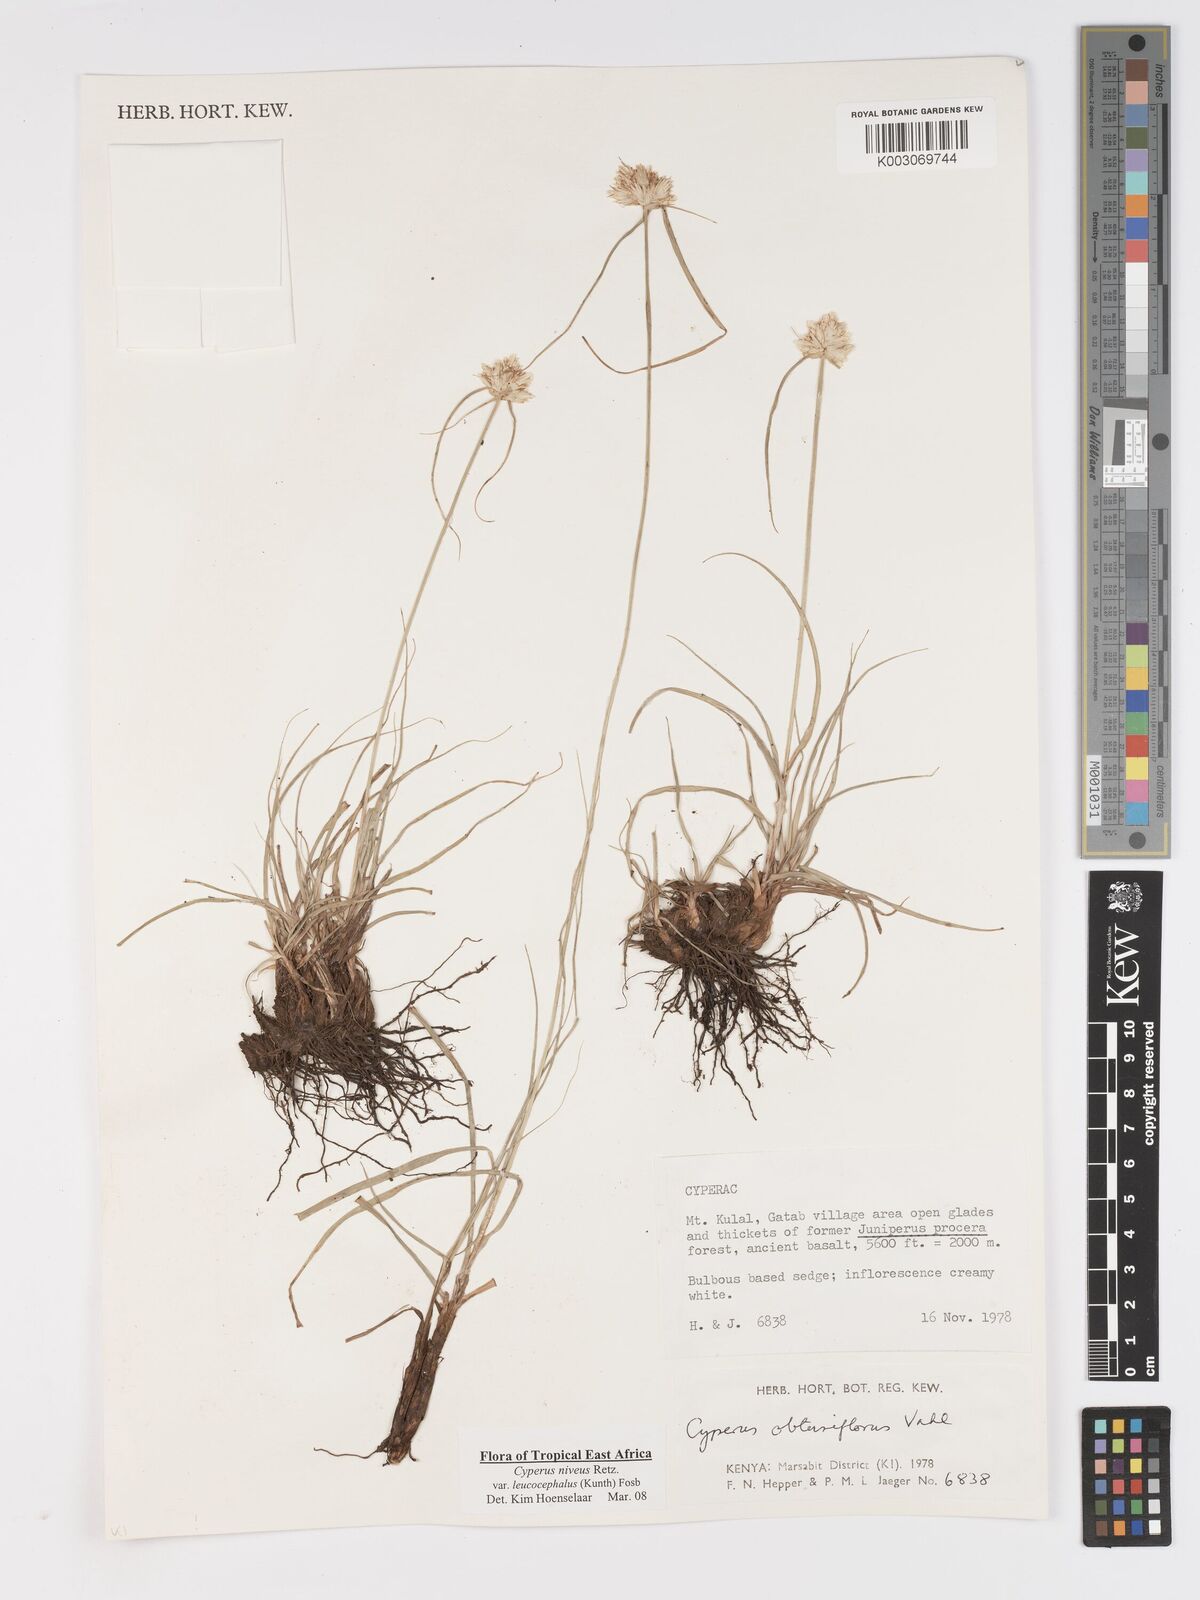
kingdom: Plantae
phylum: Tracheophyta
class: Liliopsida
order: Poales
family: Cyperaceae
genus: Cyperus
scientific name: Cyperus niveus
